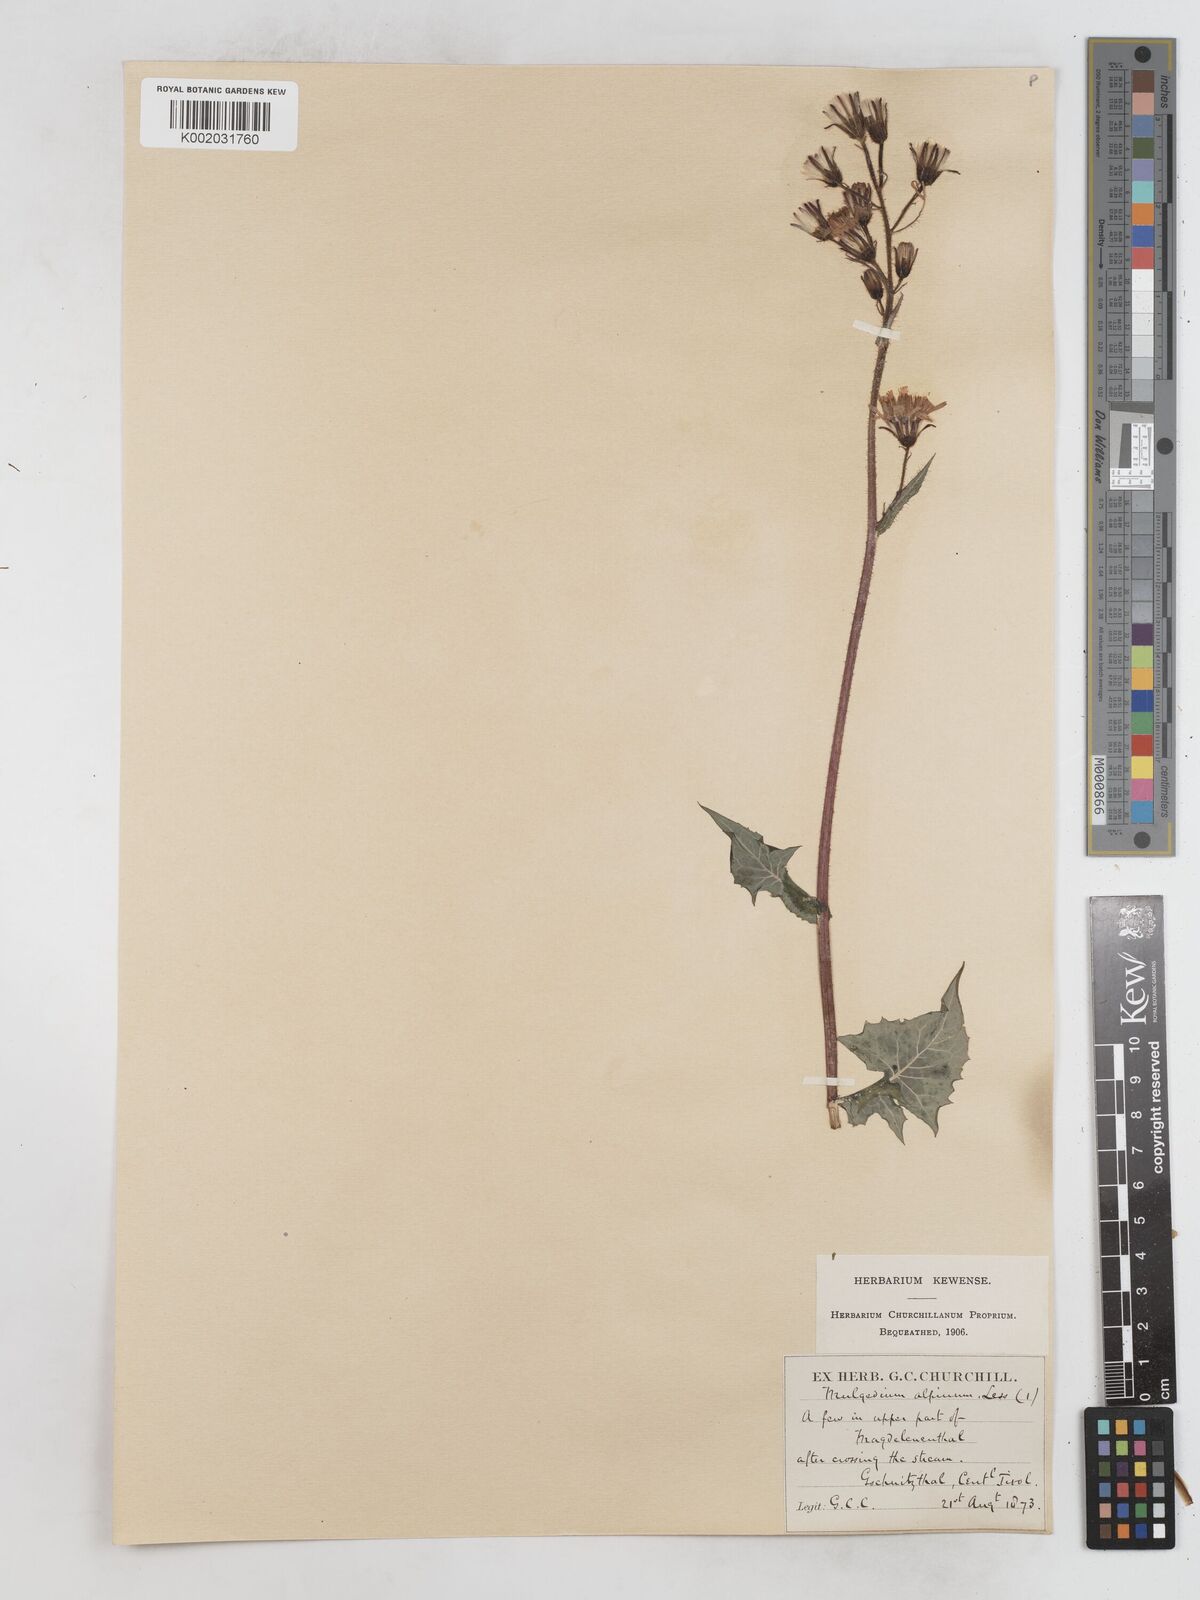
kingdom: Plantae
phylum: Tracheophyta
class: Magnoliopsida
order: Asterales
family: Asteraceae
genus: Cicerbita
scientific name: Cicerbita alpina
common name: Alpine blue-sow-thistle
